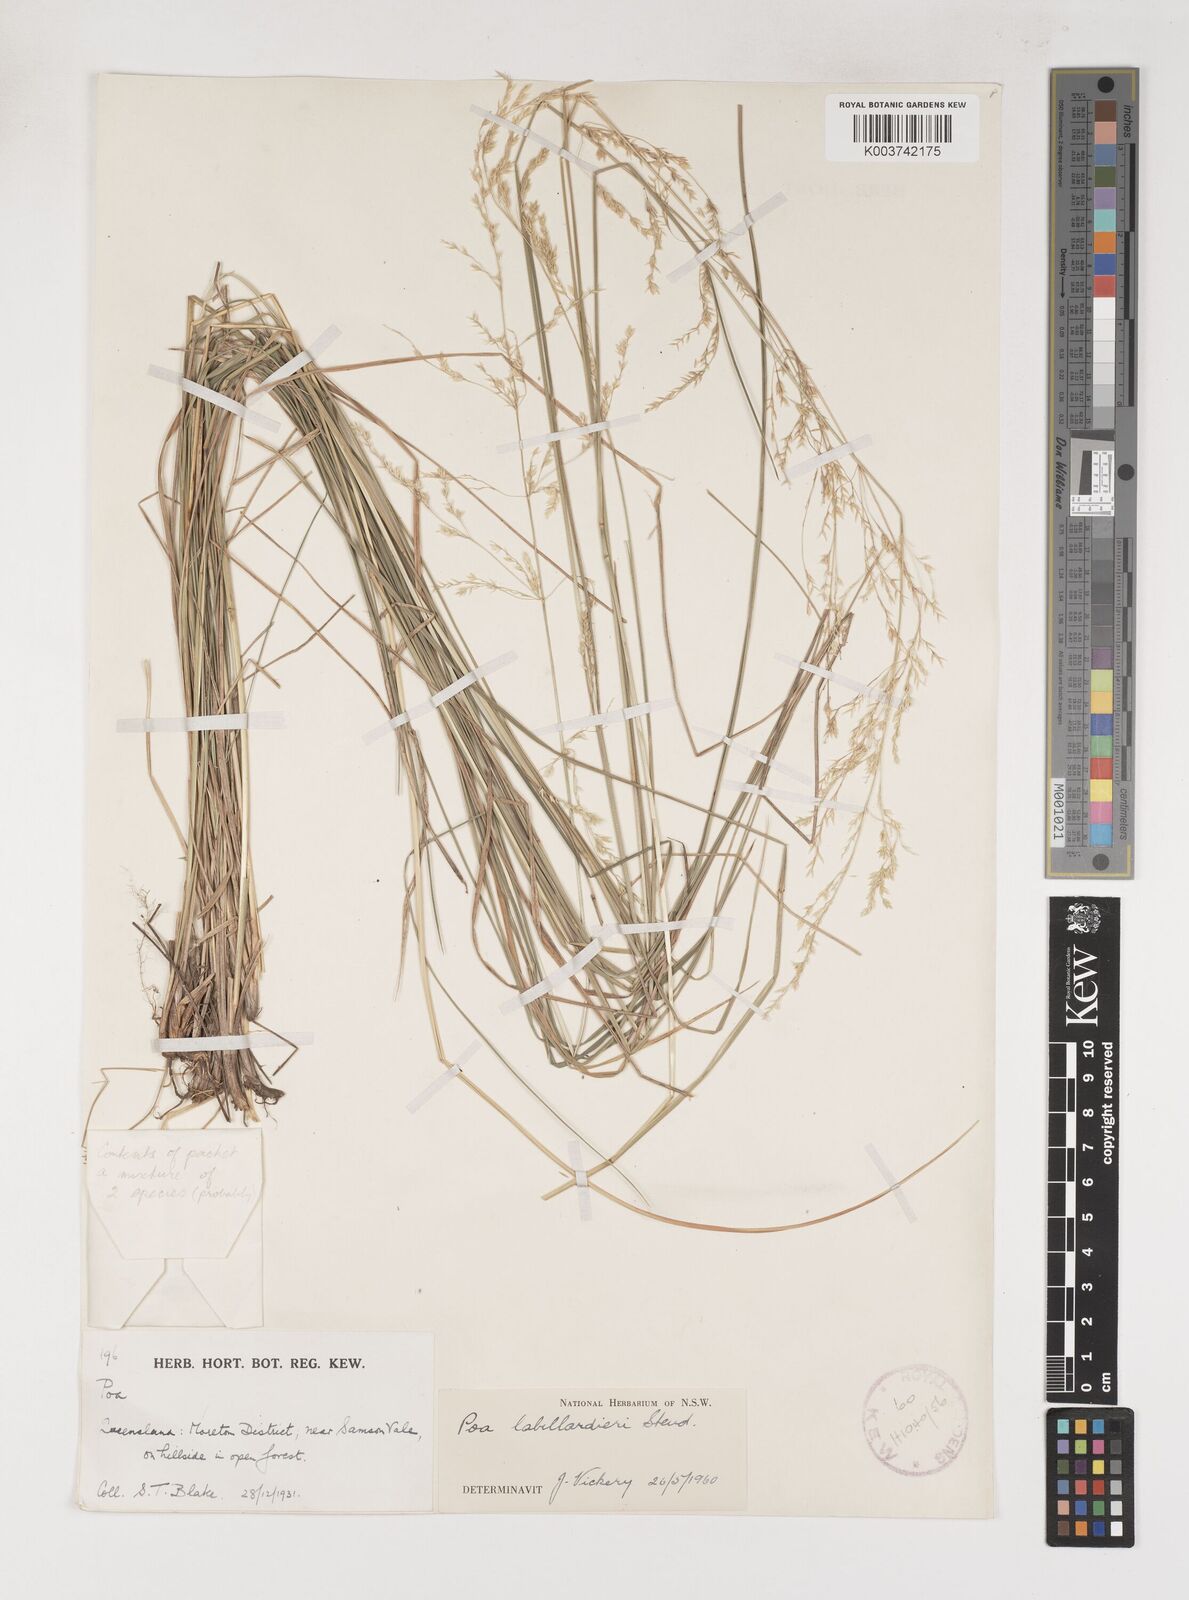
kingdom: Plantae
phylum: Tracheophyta
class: Liliopsida
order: Poales
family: Poaceae
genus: Poa
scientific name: Poa labillardierei
